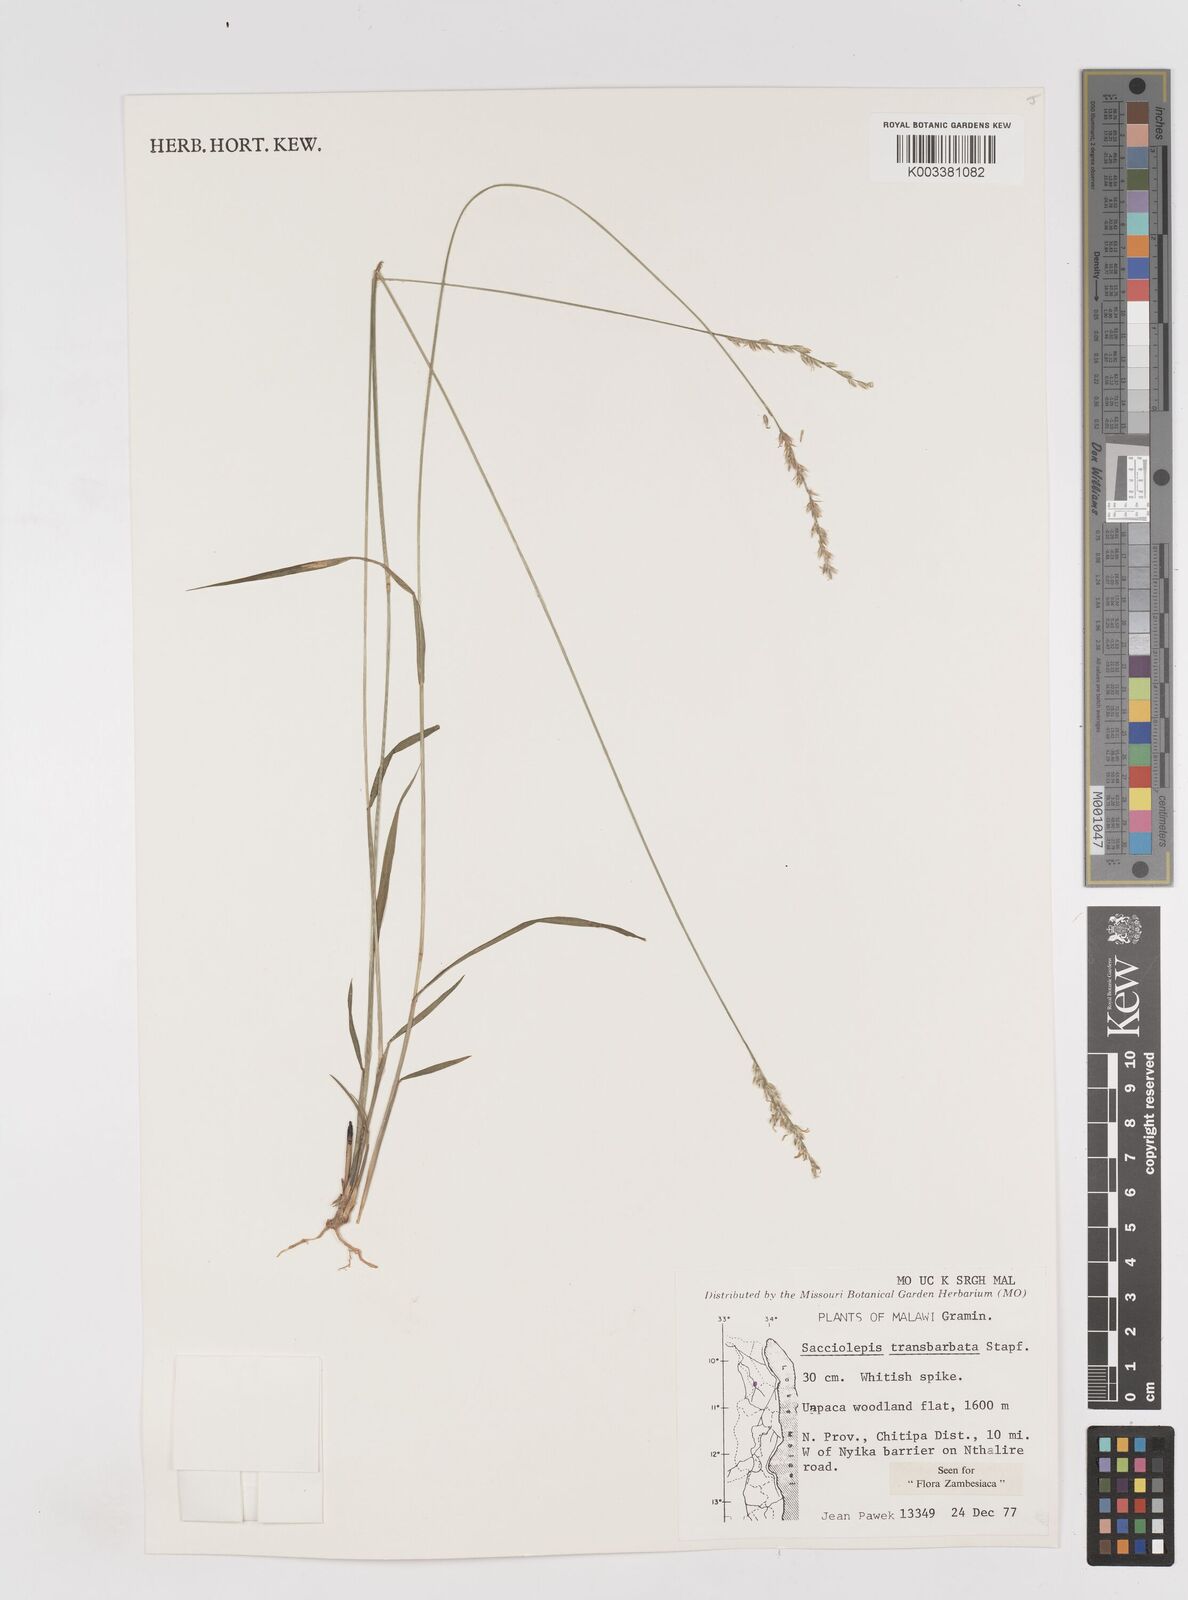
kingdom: Plantae
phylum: Tracheophyta
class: Liliopsida
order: Poales
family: Poaceae
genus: Sacciolepis
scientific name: Sacciolepis transbarbata
